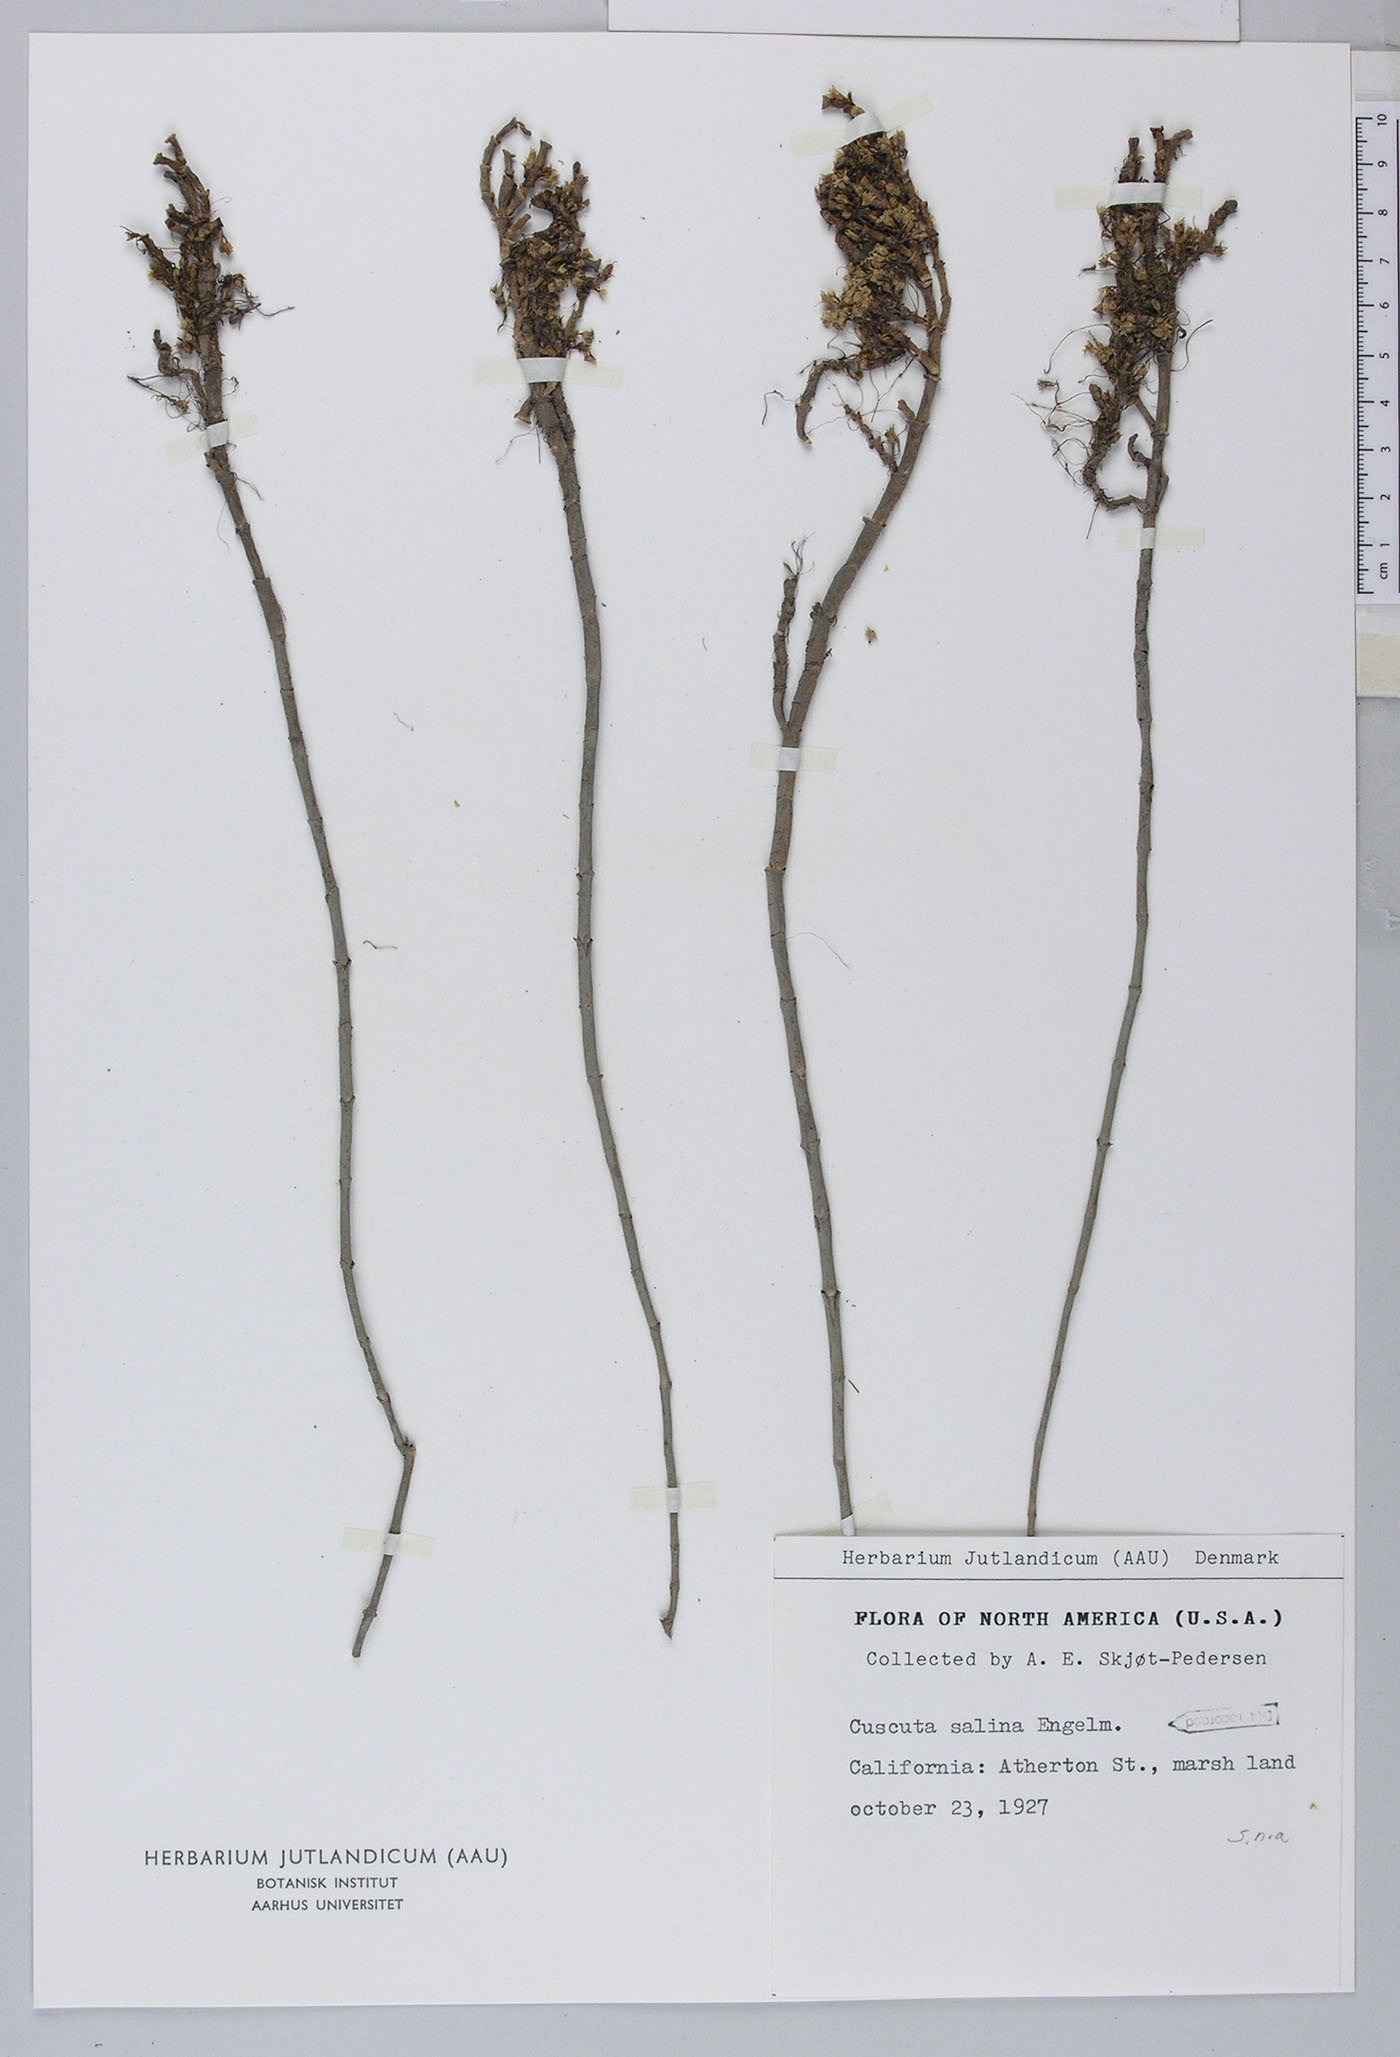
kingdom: Plantae
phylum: Tracheophyta
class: Magnoliopsida
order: Solanales
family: Convolvulaceae
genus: Cuscuta
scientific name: Cuscuta salina
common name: Goldenthread
